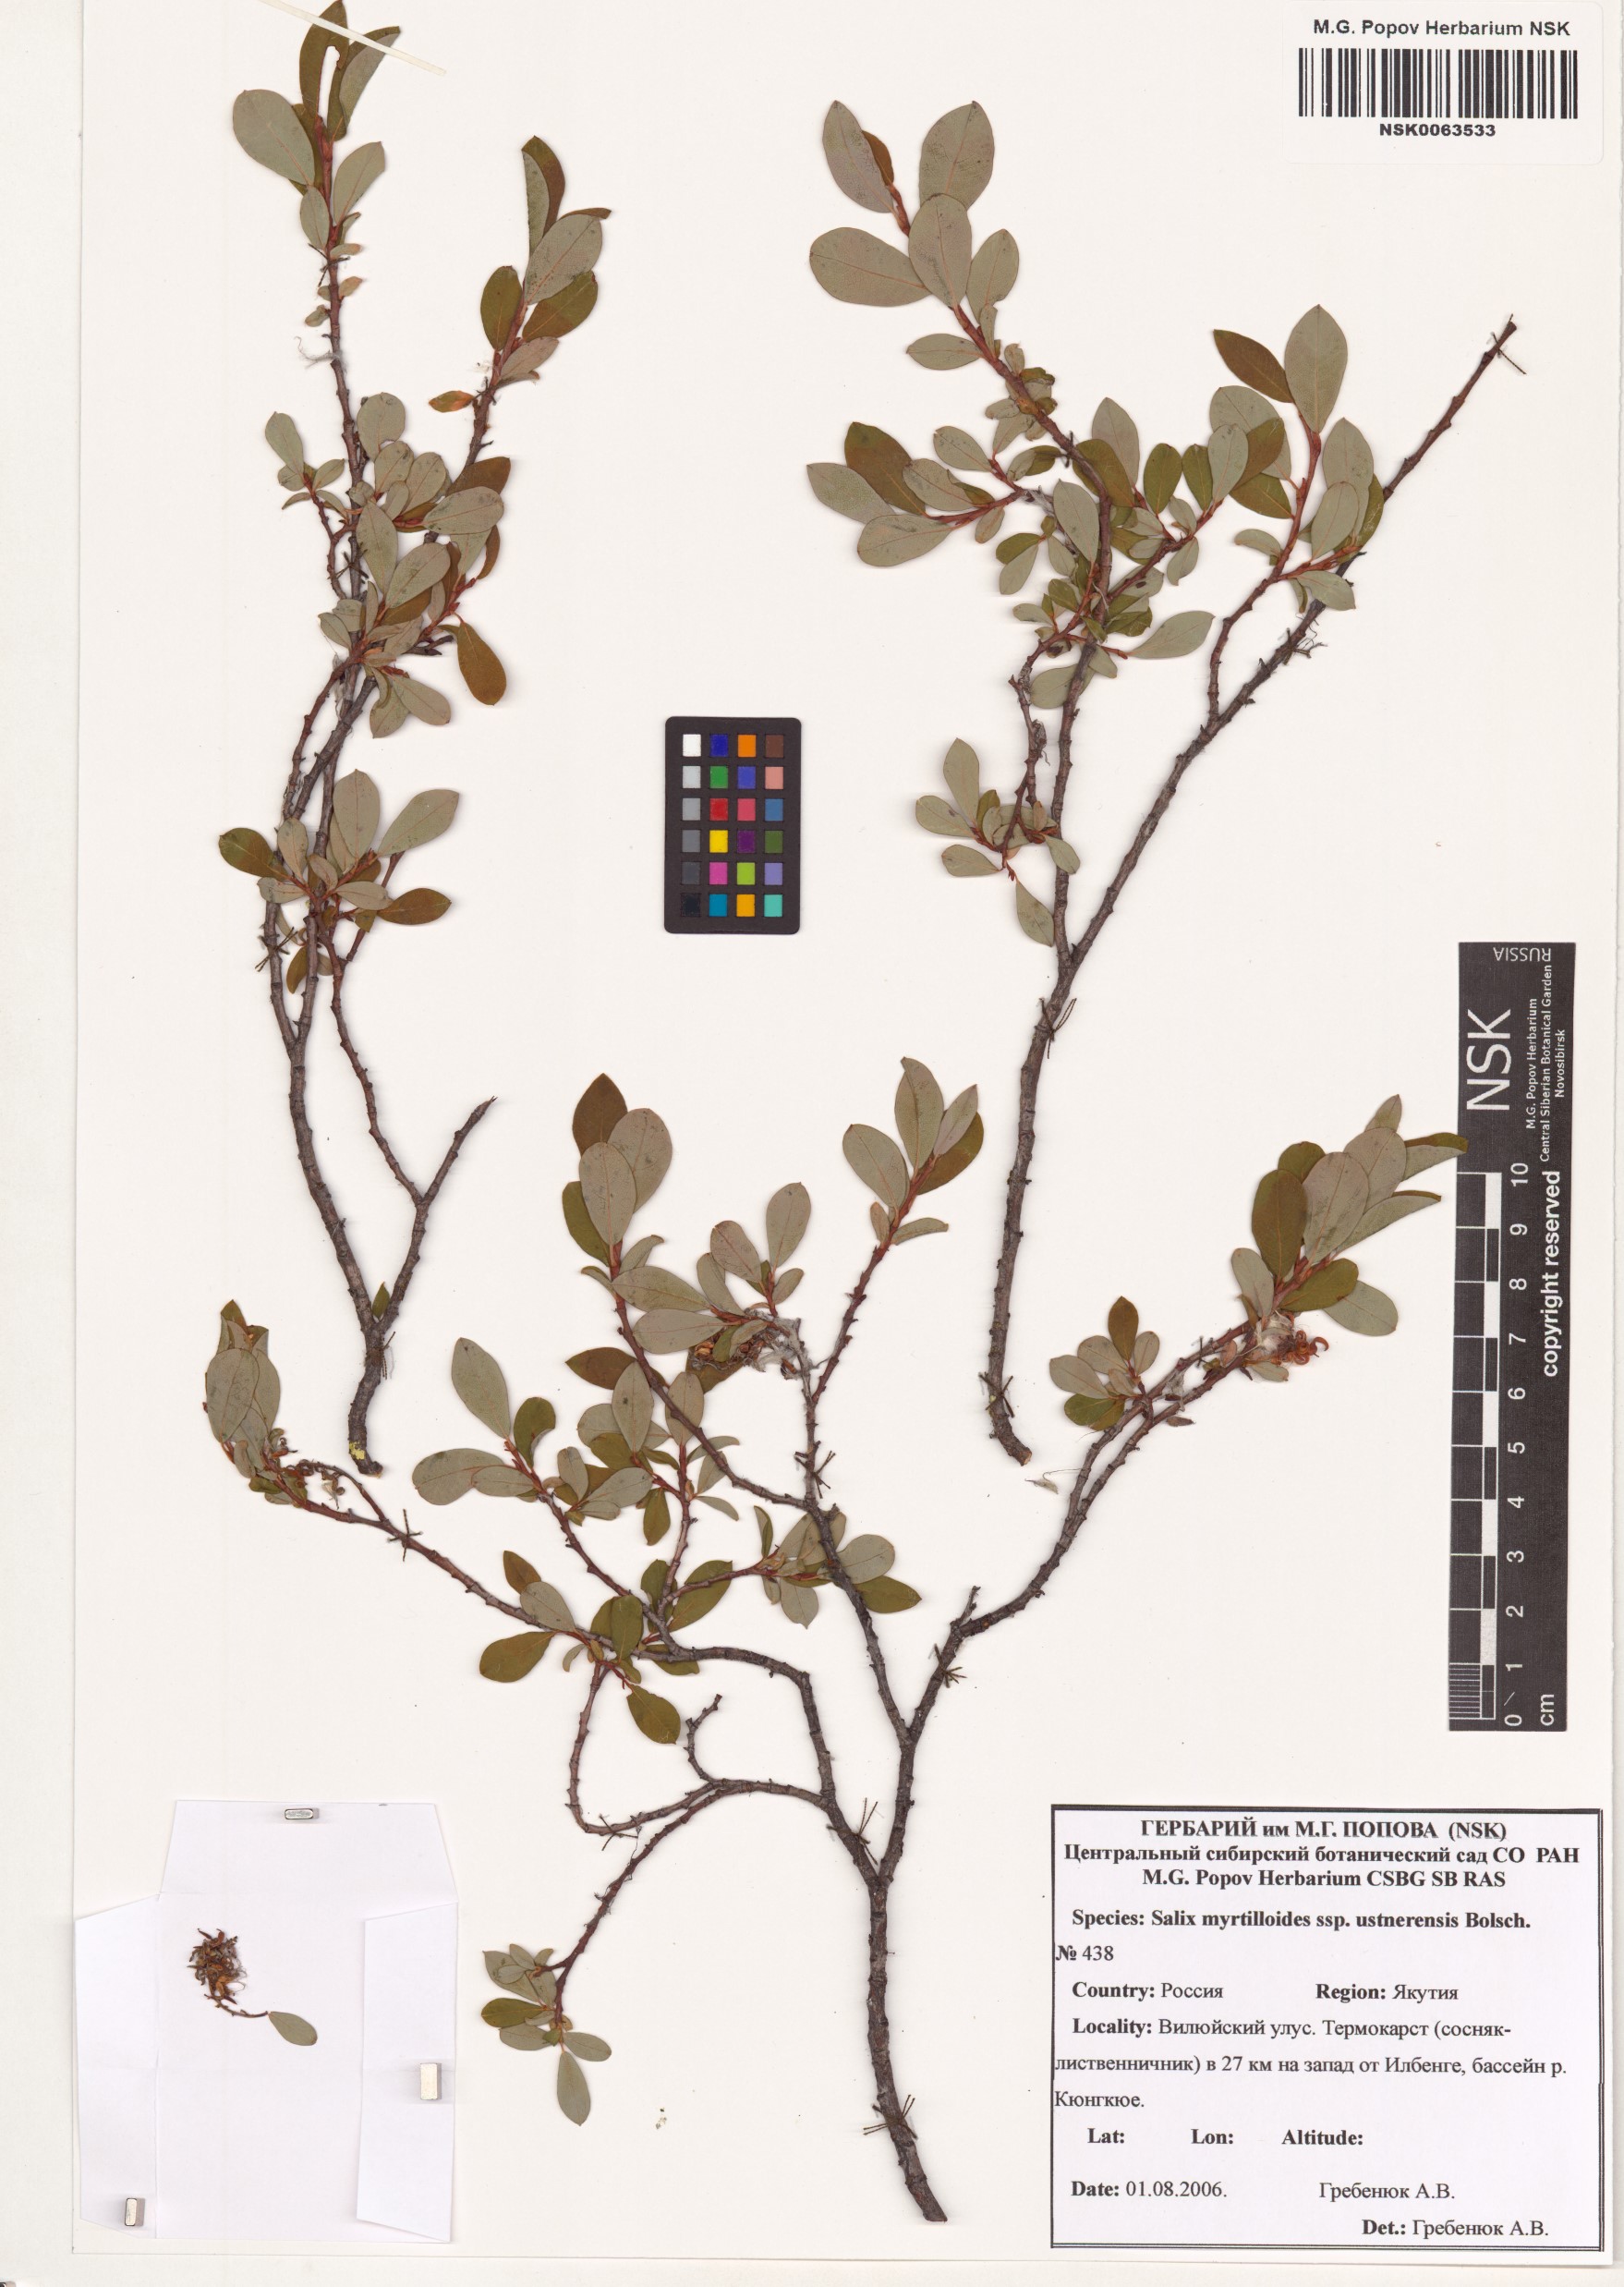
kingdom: Plantae
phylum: Tracheophyta
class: Magnoliopsida
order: Malpighiales
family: Salicaceae
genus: Salix
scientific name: Salix ustnerensis
